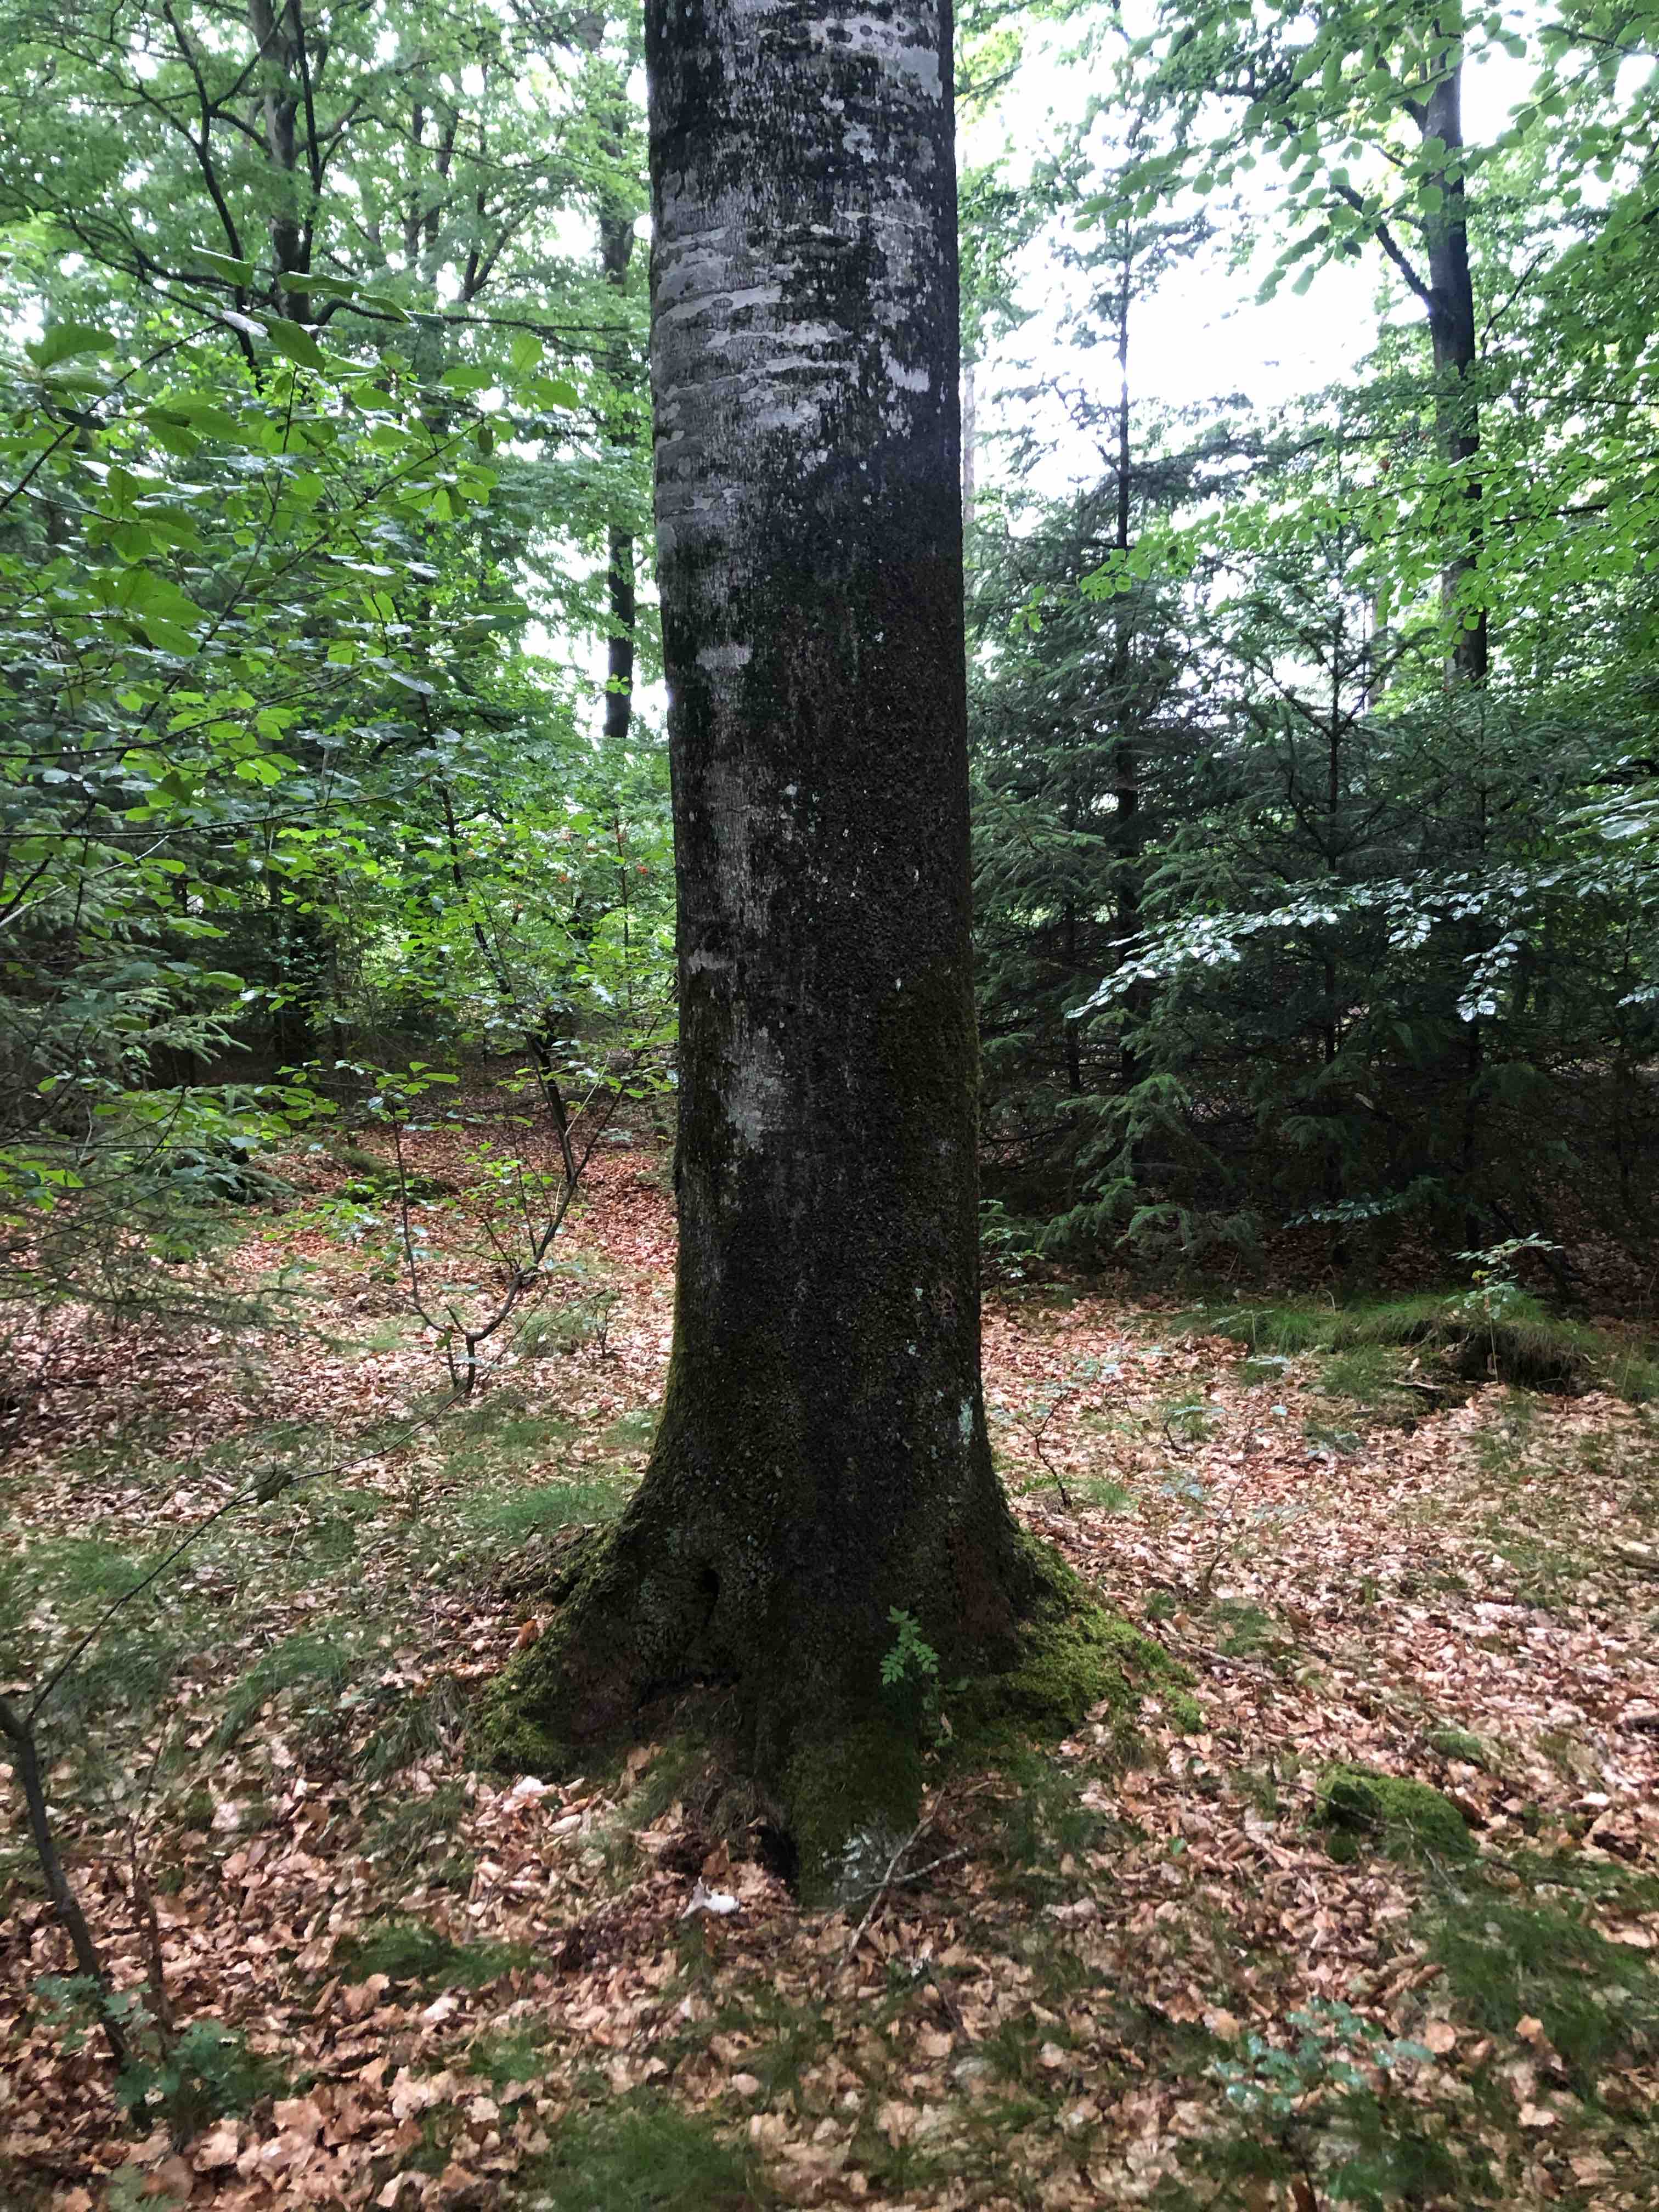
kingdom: Fungi
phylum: Basidiomycota
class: Agaricomycetes
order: Russulales
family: Russulaceae
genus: Russula
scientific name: Russula densifolia
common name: tætbladet skørhat
